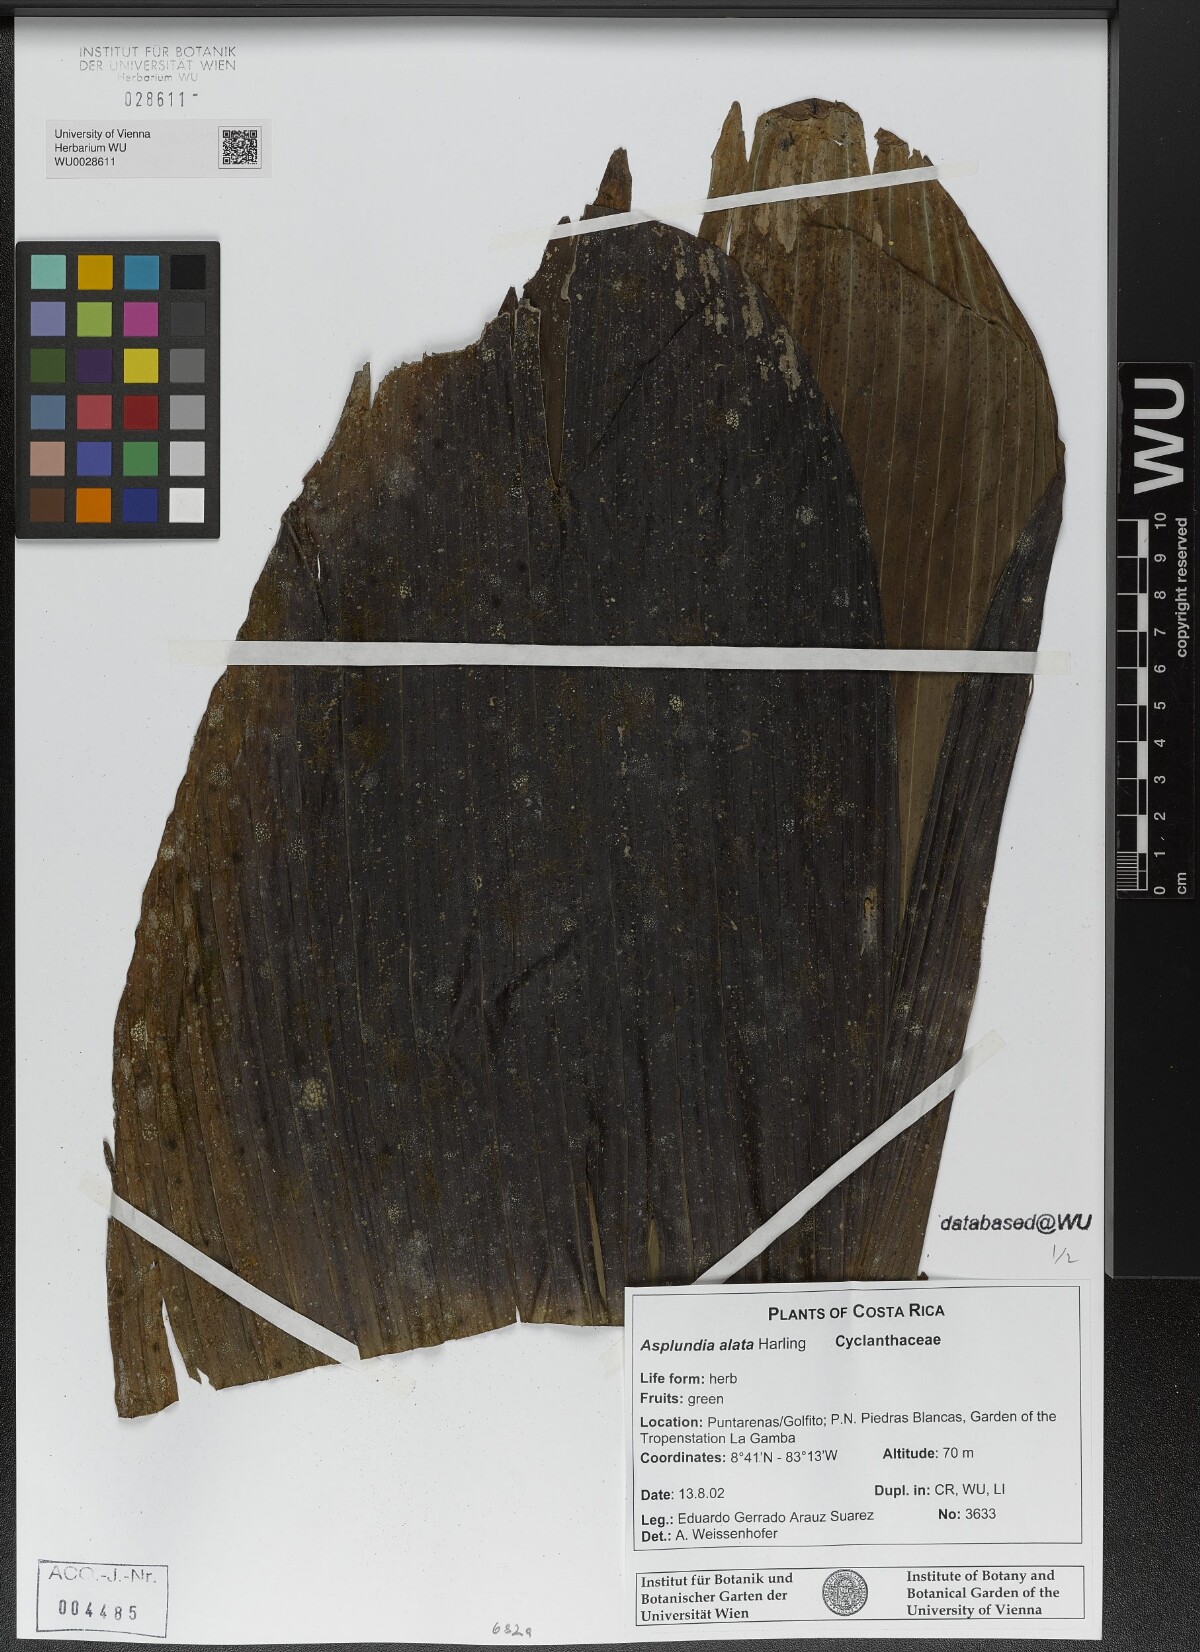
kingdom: Plantae
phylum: Tracheophyta
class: Liliopsida
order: Pandanales
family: Cyclanthaceae
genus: Asplundia
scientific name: Asplundia alata
